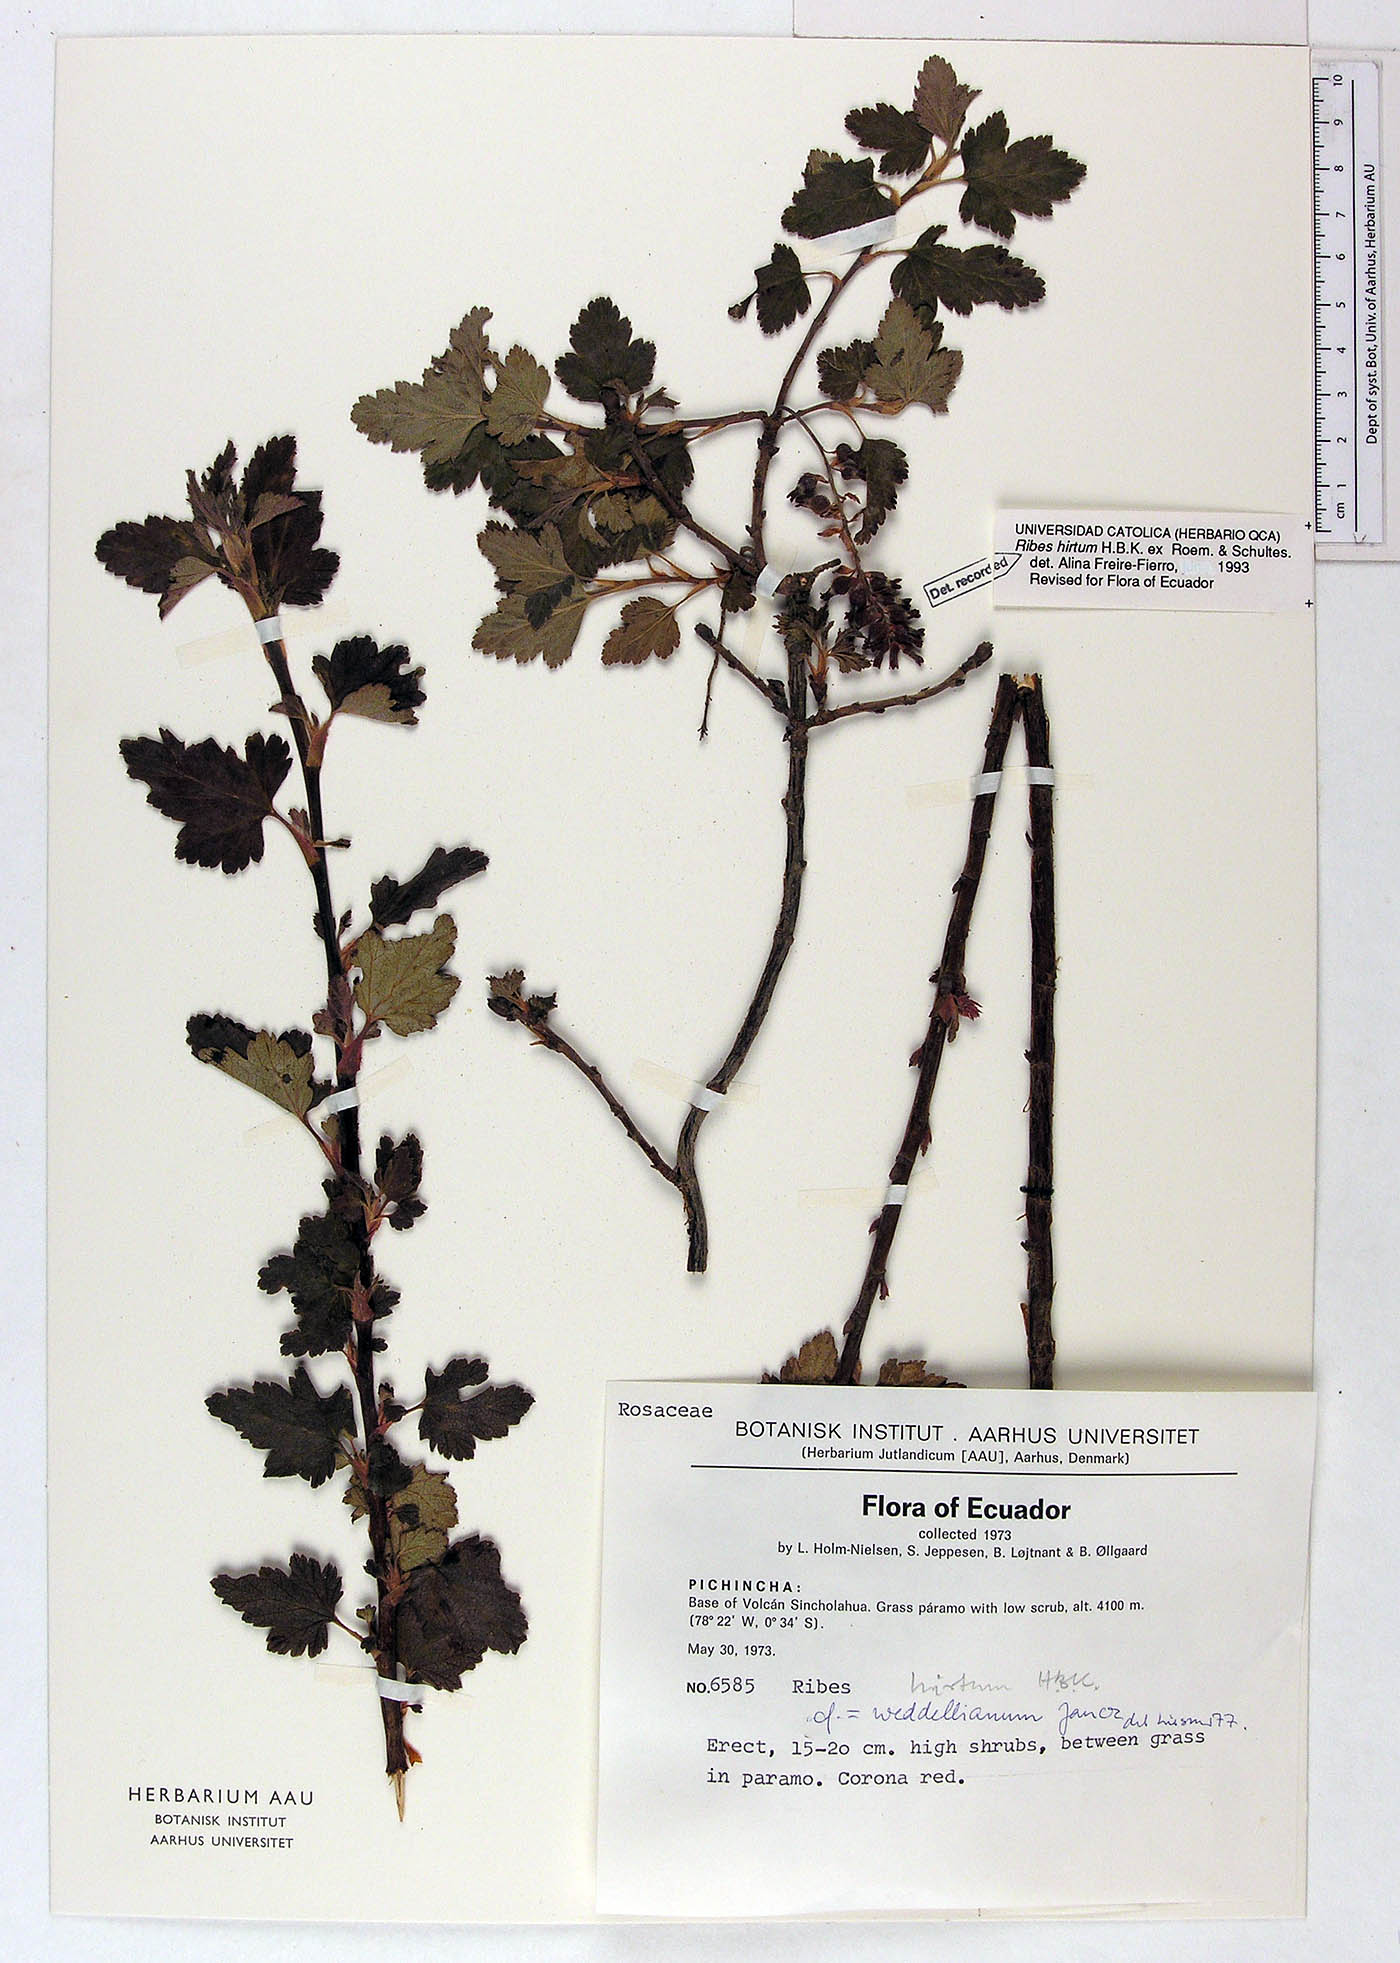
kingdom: Plantae
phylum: Tracheophyta
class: Magnoliopsida
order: Saxifragales
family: Grossulariaceae
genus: Ribes
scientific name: Ribes hirtum
